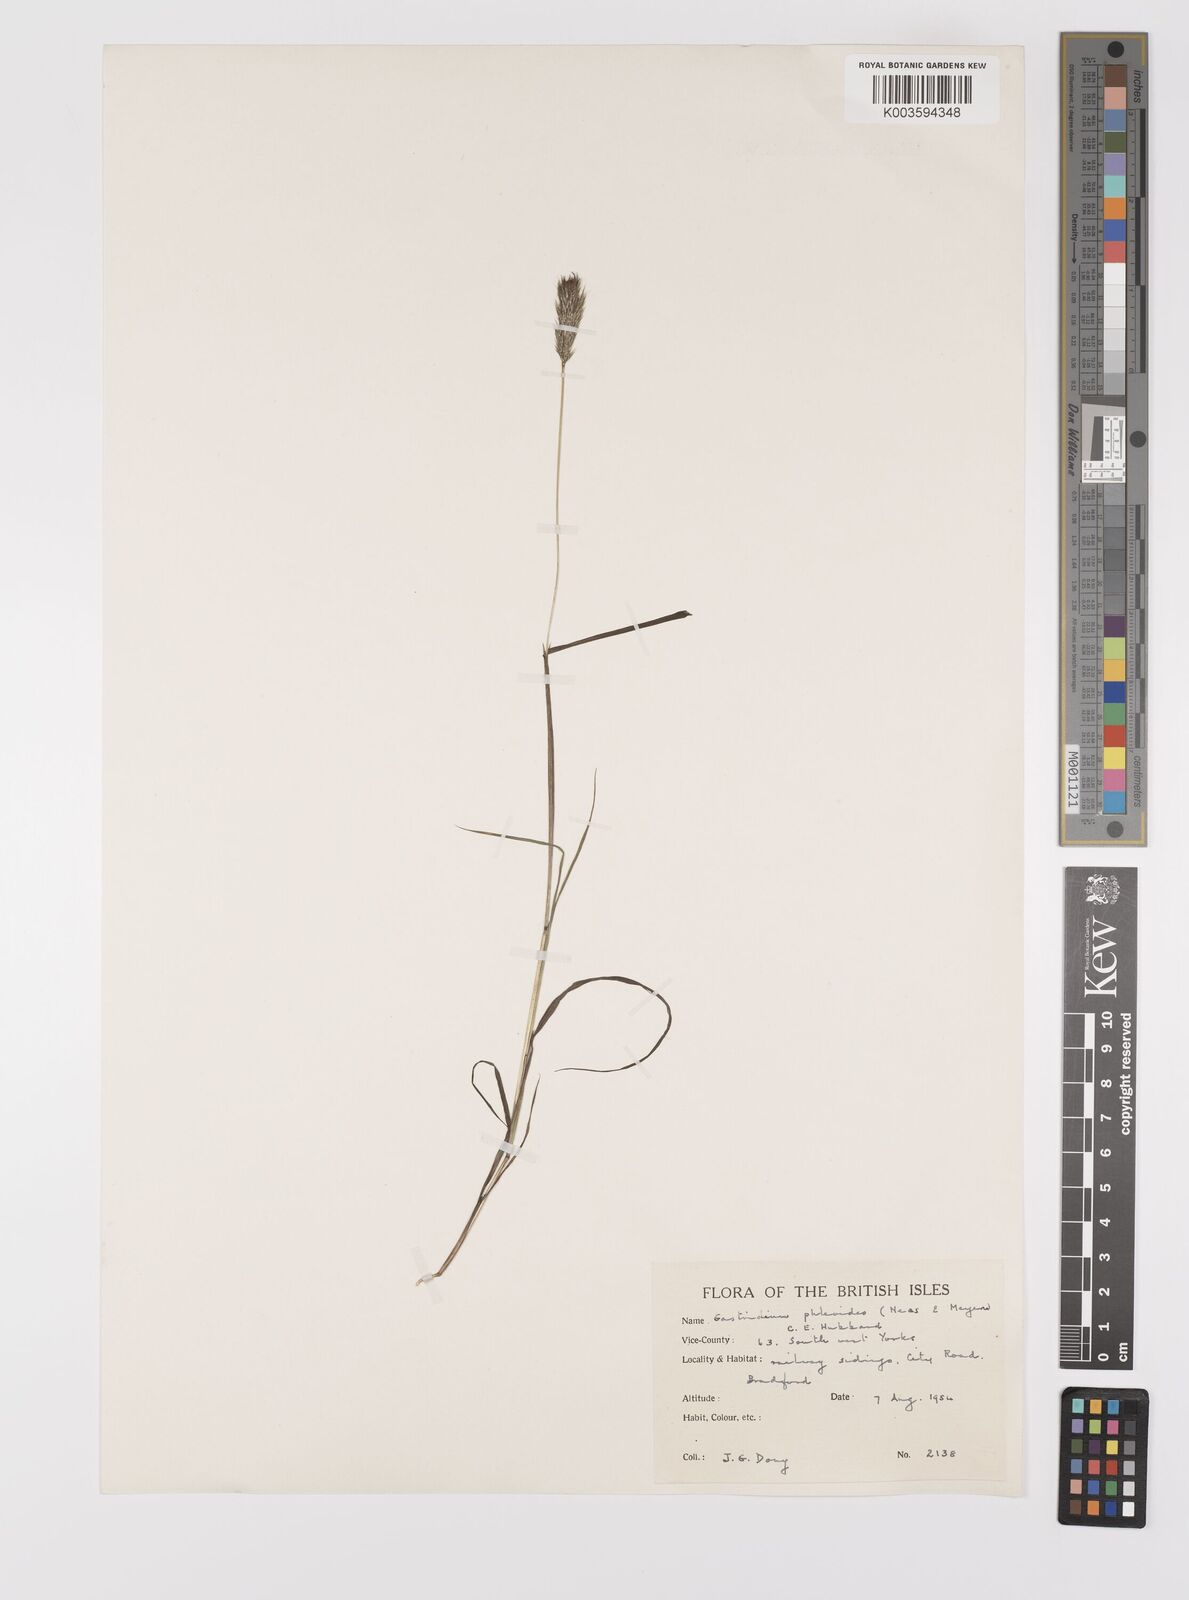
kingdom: Plantae
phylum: Tracheophyta
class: Liliopsida
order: Poales
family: Poaceae
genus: Gastridium
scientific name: Gastridium phleoides
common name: Nit grass
